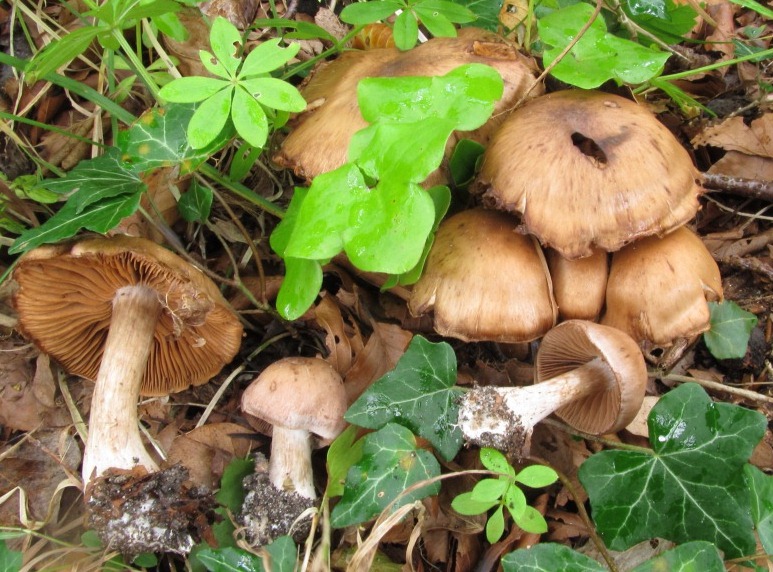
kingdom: Fungi
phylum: Basidiomycota
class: Agaricomycetes
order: Agaricales
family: Cortinariaceae
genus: Cortinarius
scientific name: Cortinarius nefastus
